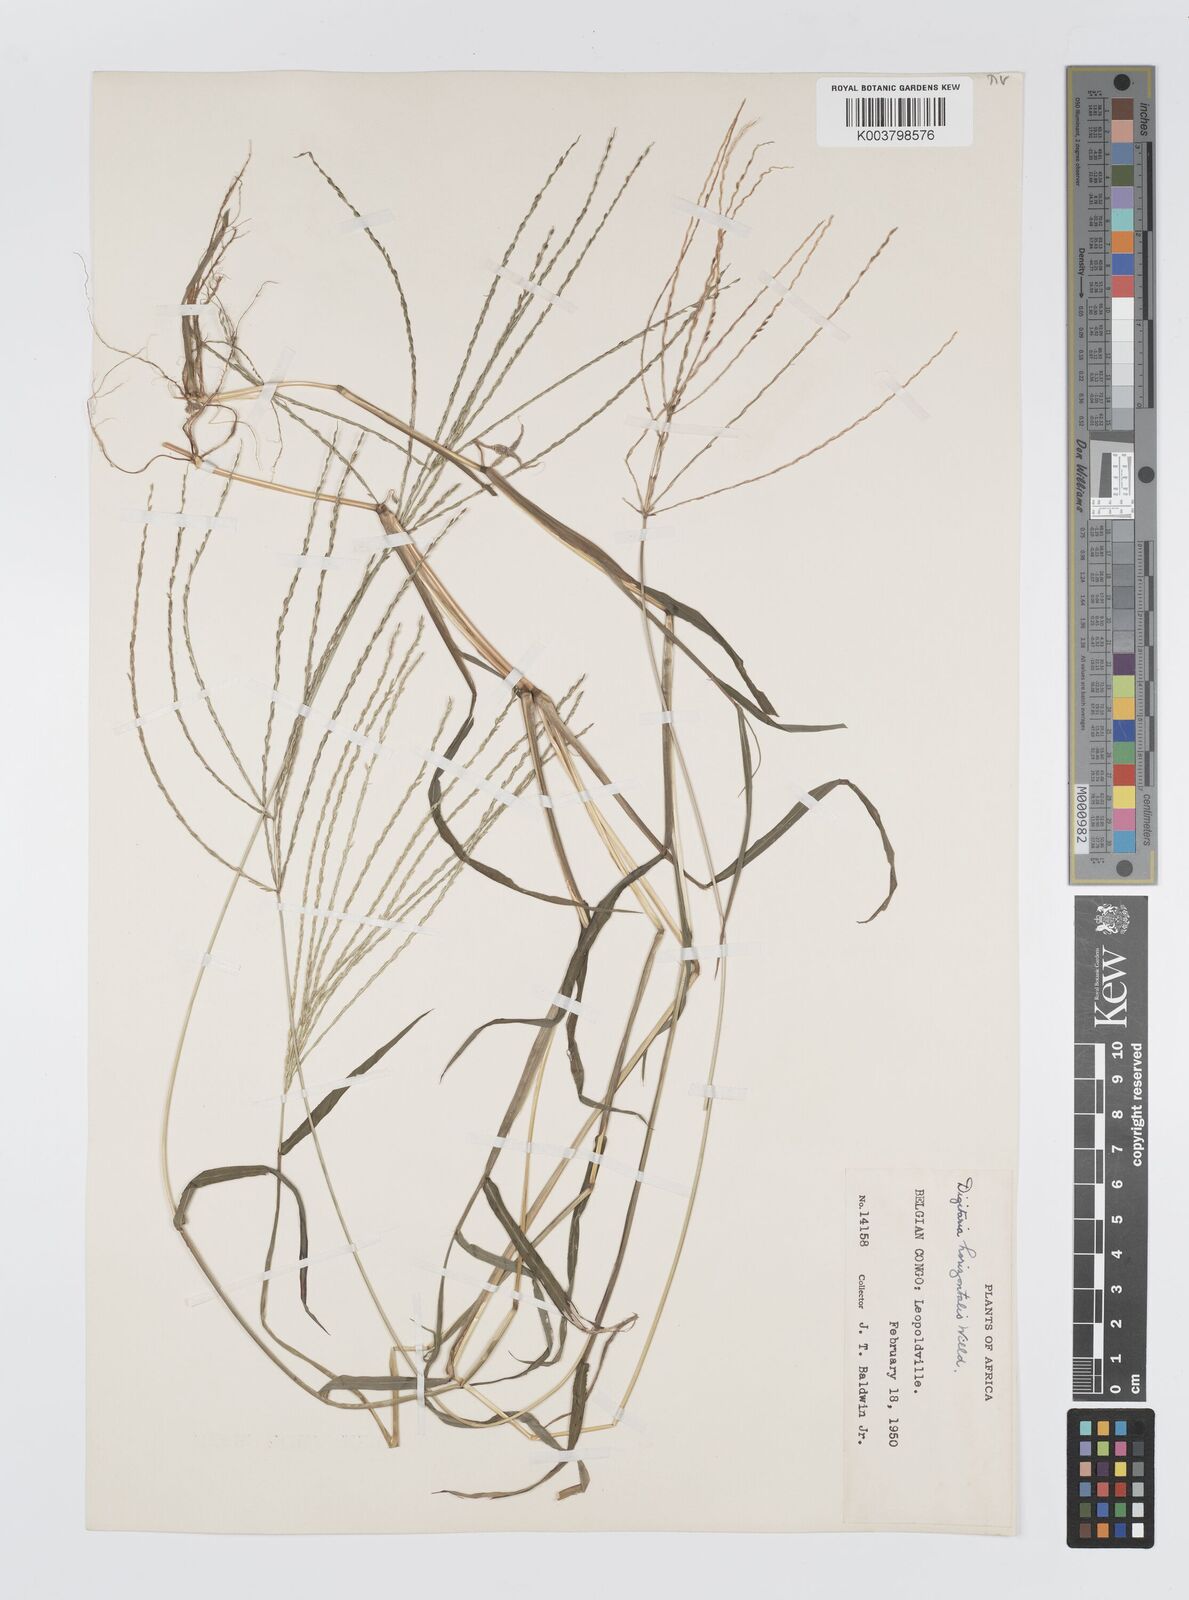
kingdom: Plantae
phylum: Tracheophyta
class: Liliopsida
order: Poales
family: Poaceae
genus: Digitaria
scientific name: Digitaria nuda
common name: Naked crabgrass
